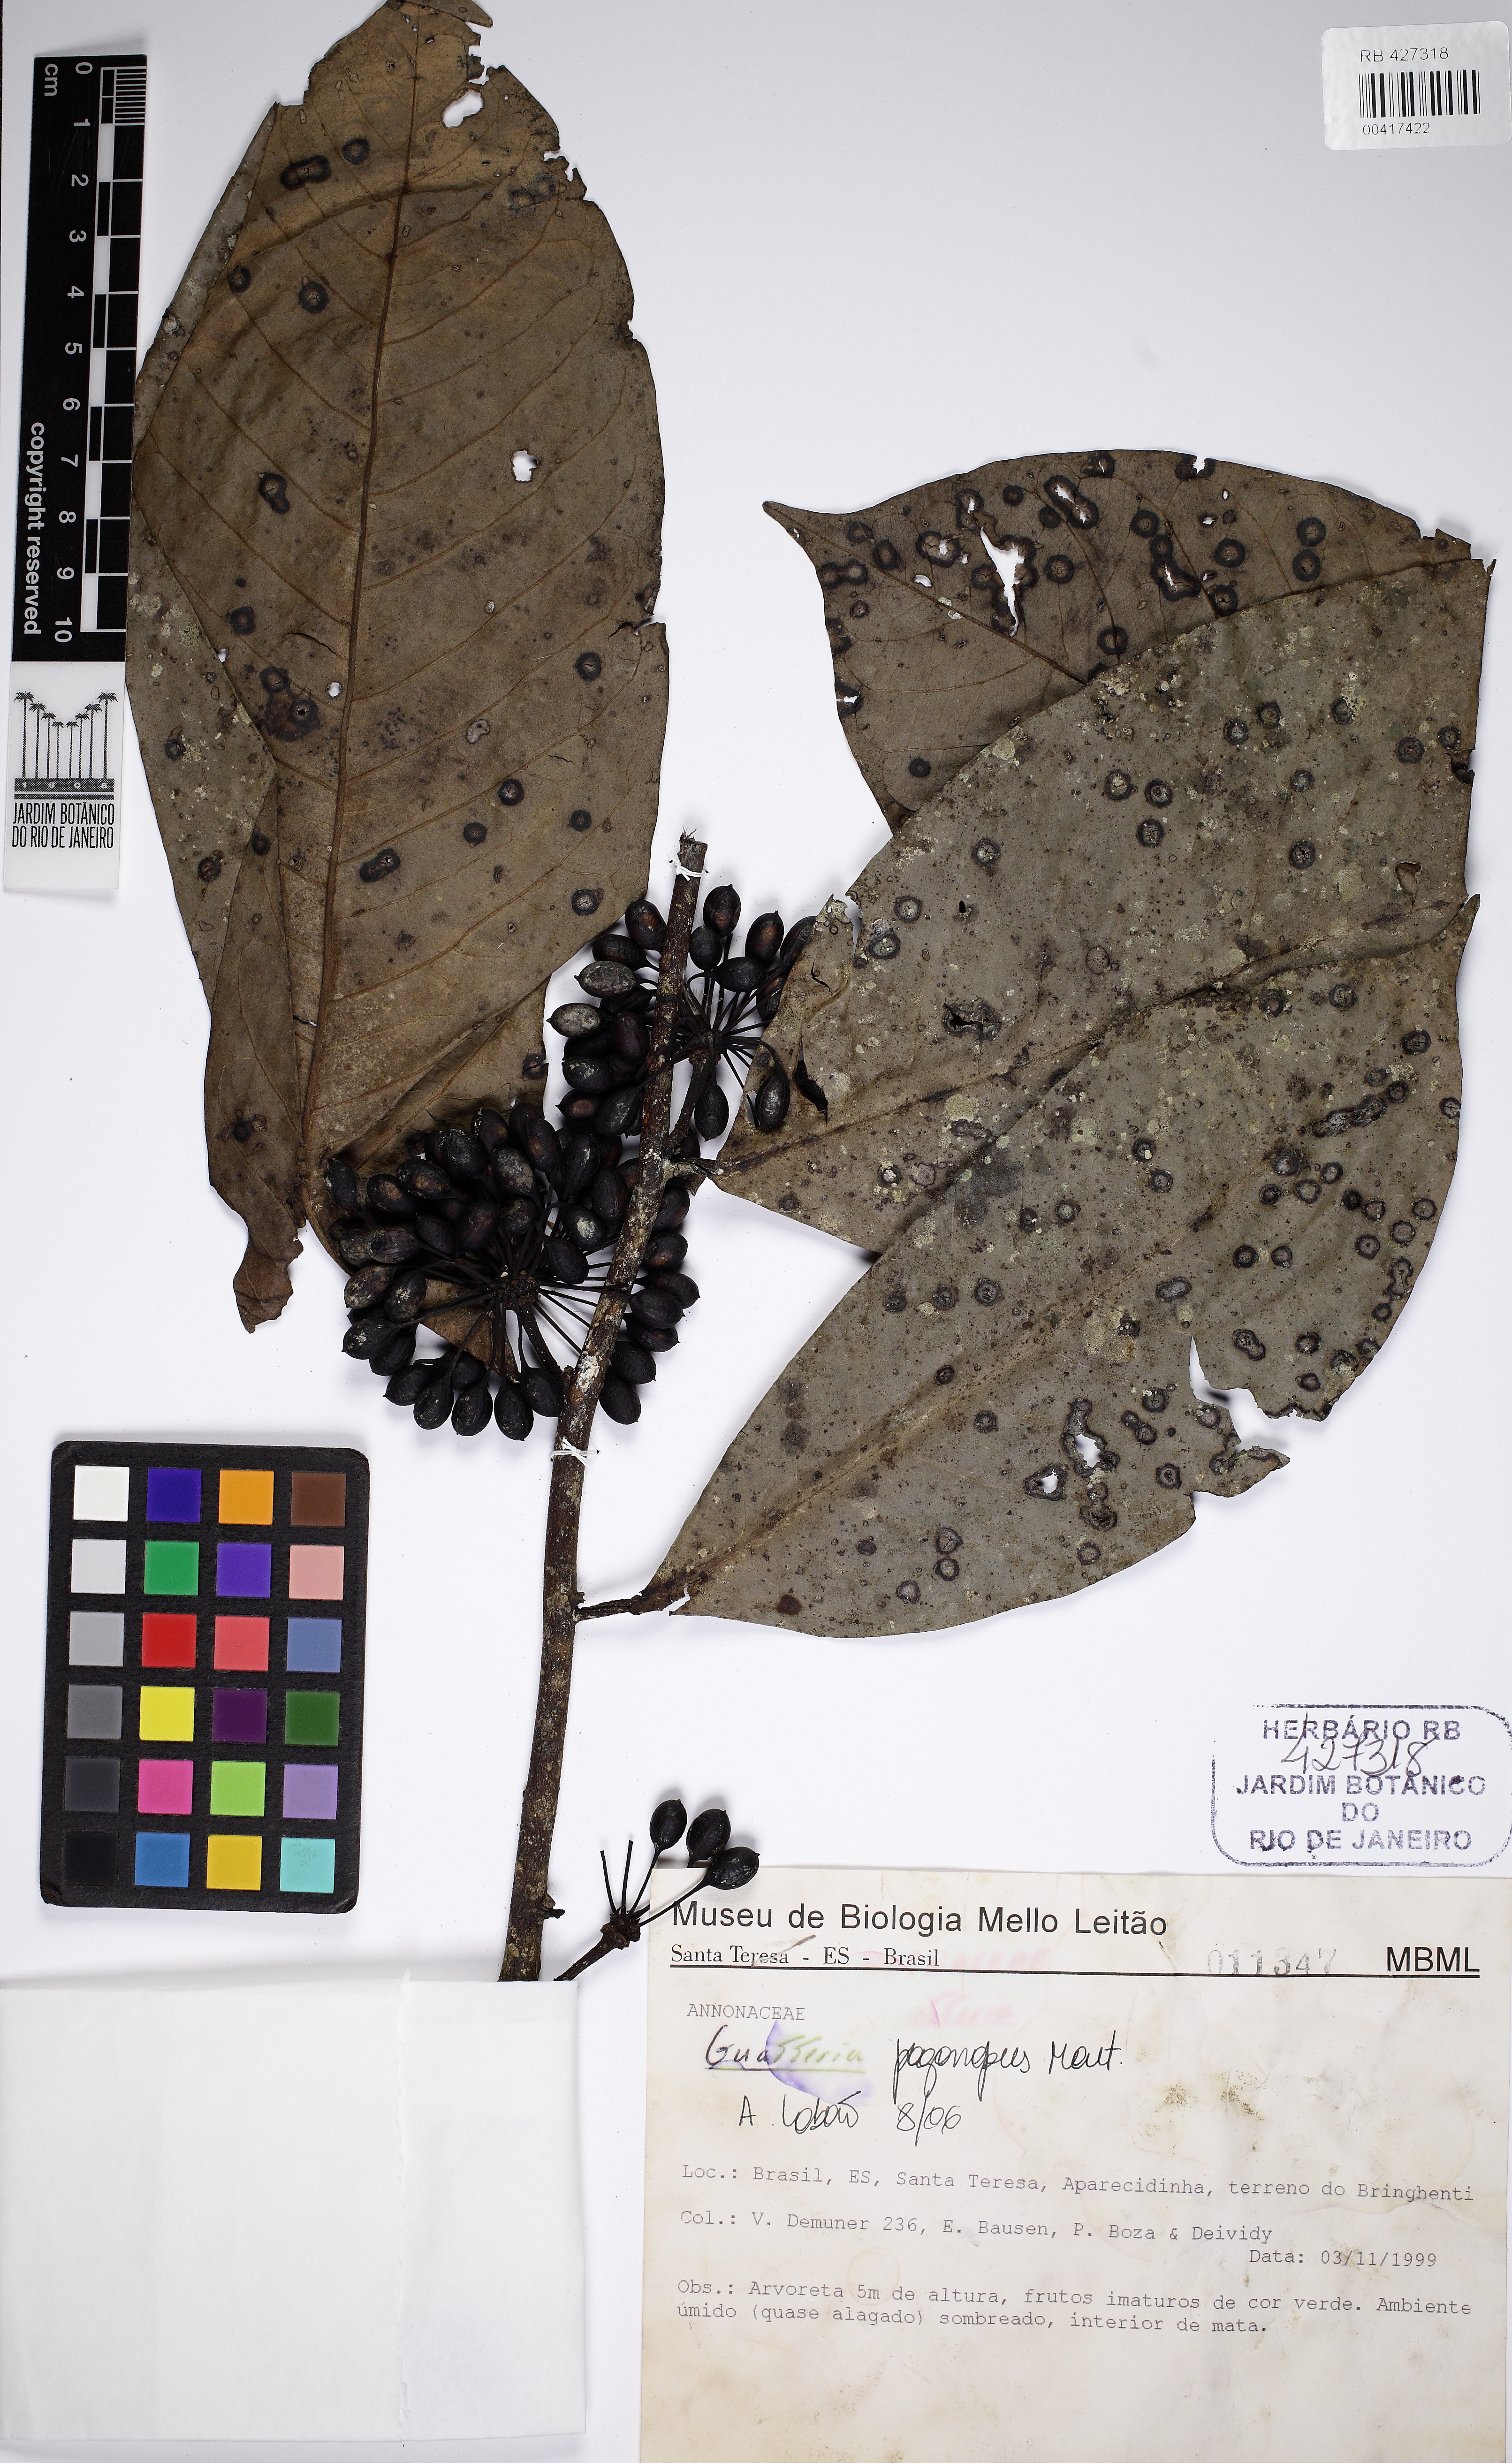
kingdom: Plantae
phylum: Tracheophyta
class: Magnoliopsida
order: Magnoliales
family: Annonaceae
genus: Guatteria
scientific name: Guatteria pogonopus
